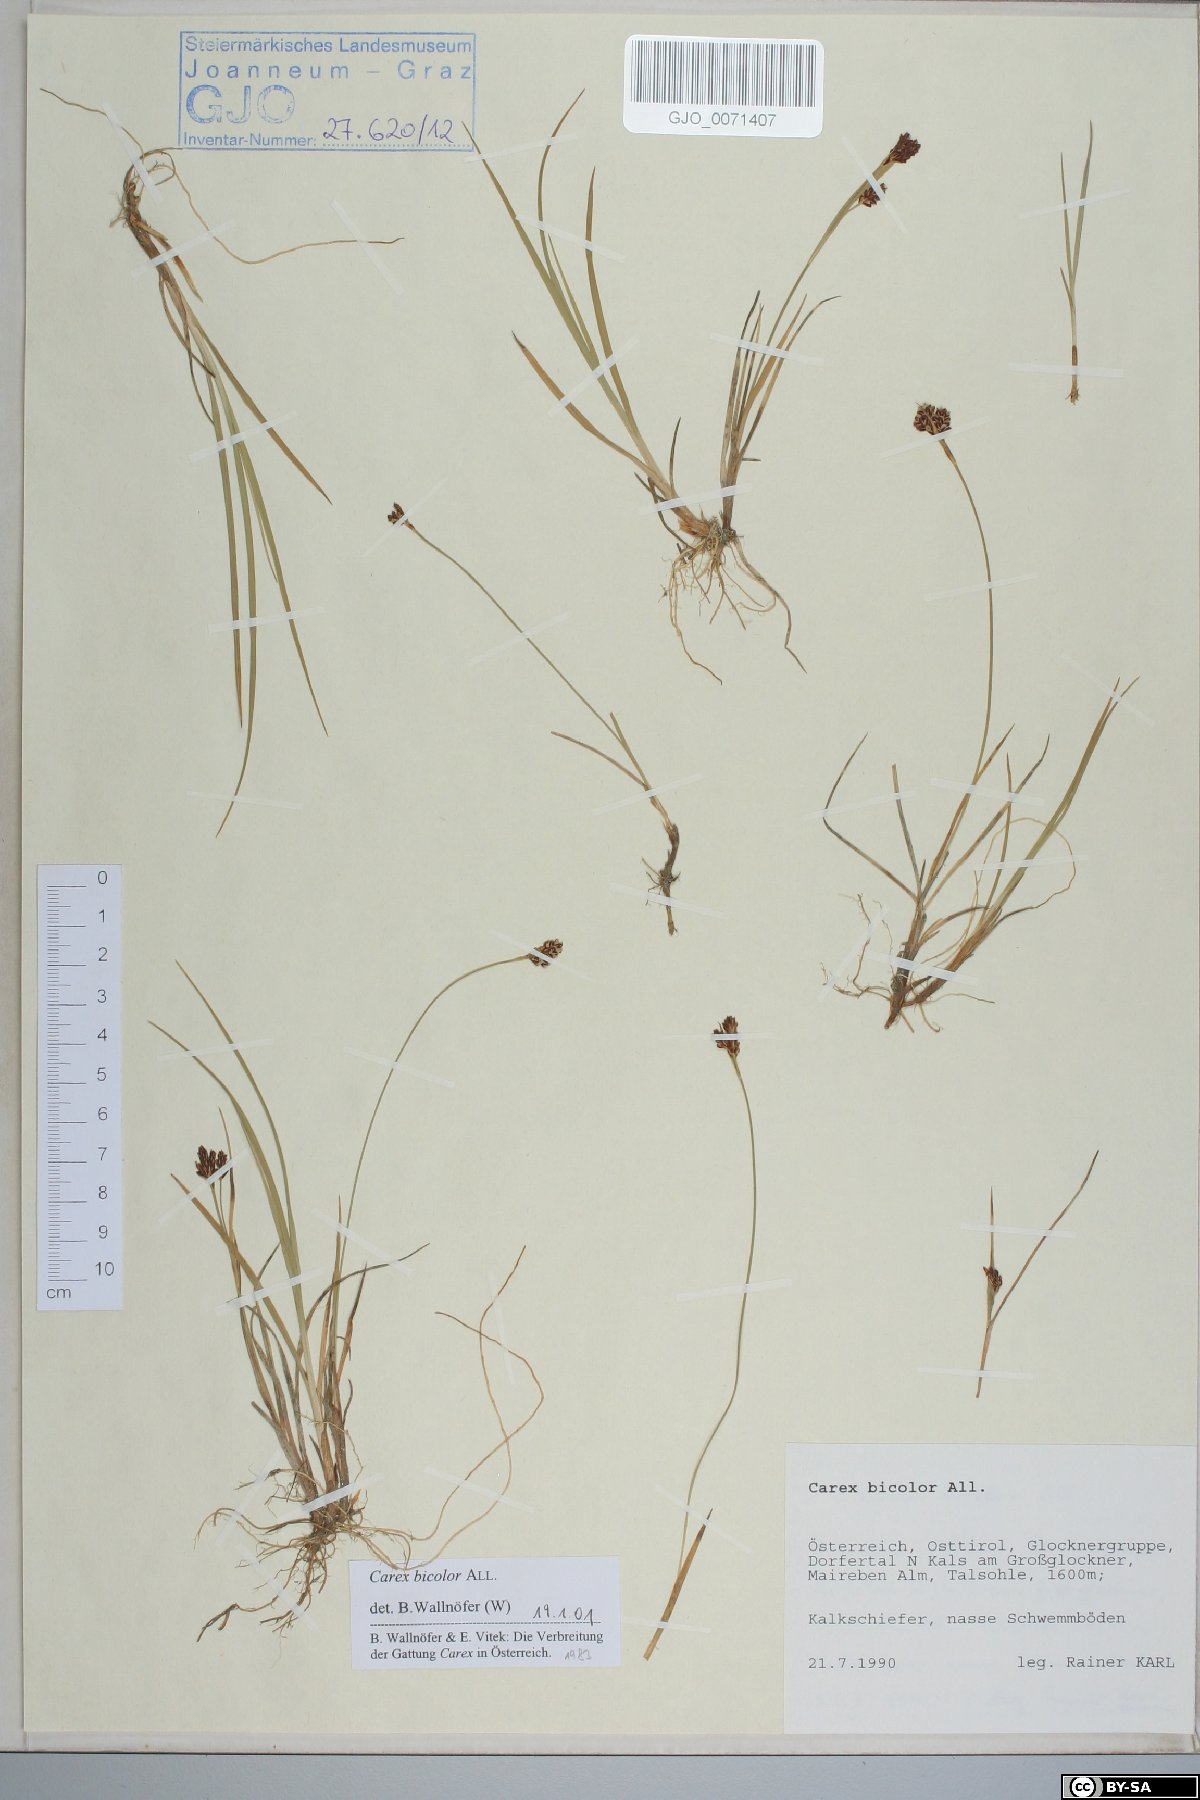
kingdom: Plantae
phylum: Tracheophyta
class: Liliopsida
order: Poales
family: Cyperaceae
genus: Carex
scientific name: Carex bicolor
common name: Bicoloured sedge
